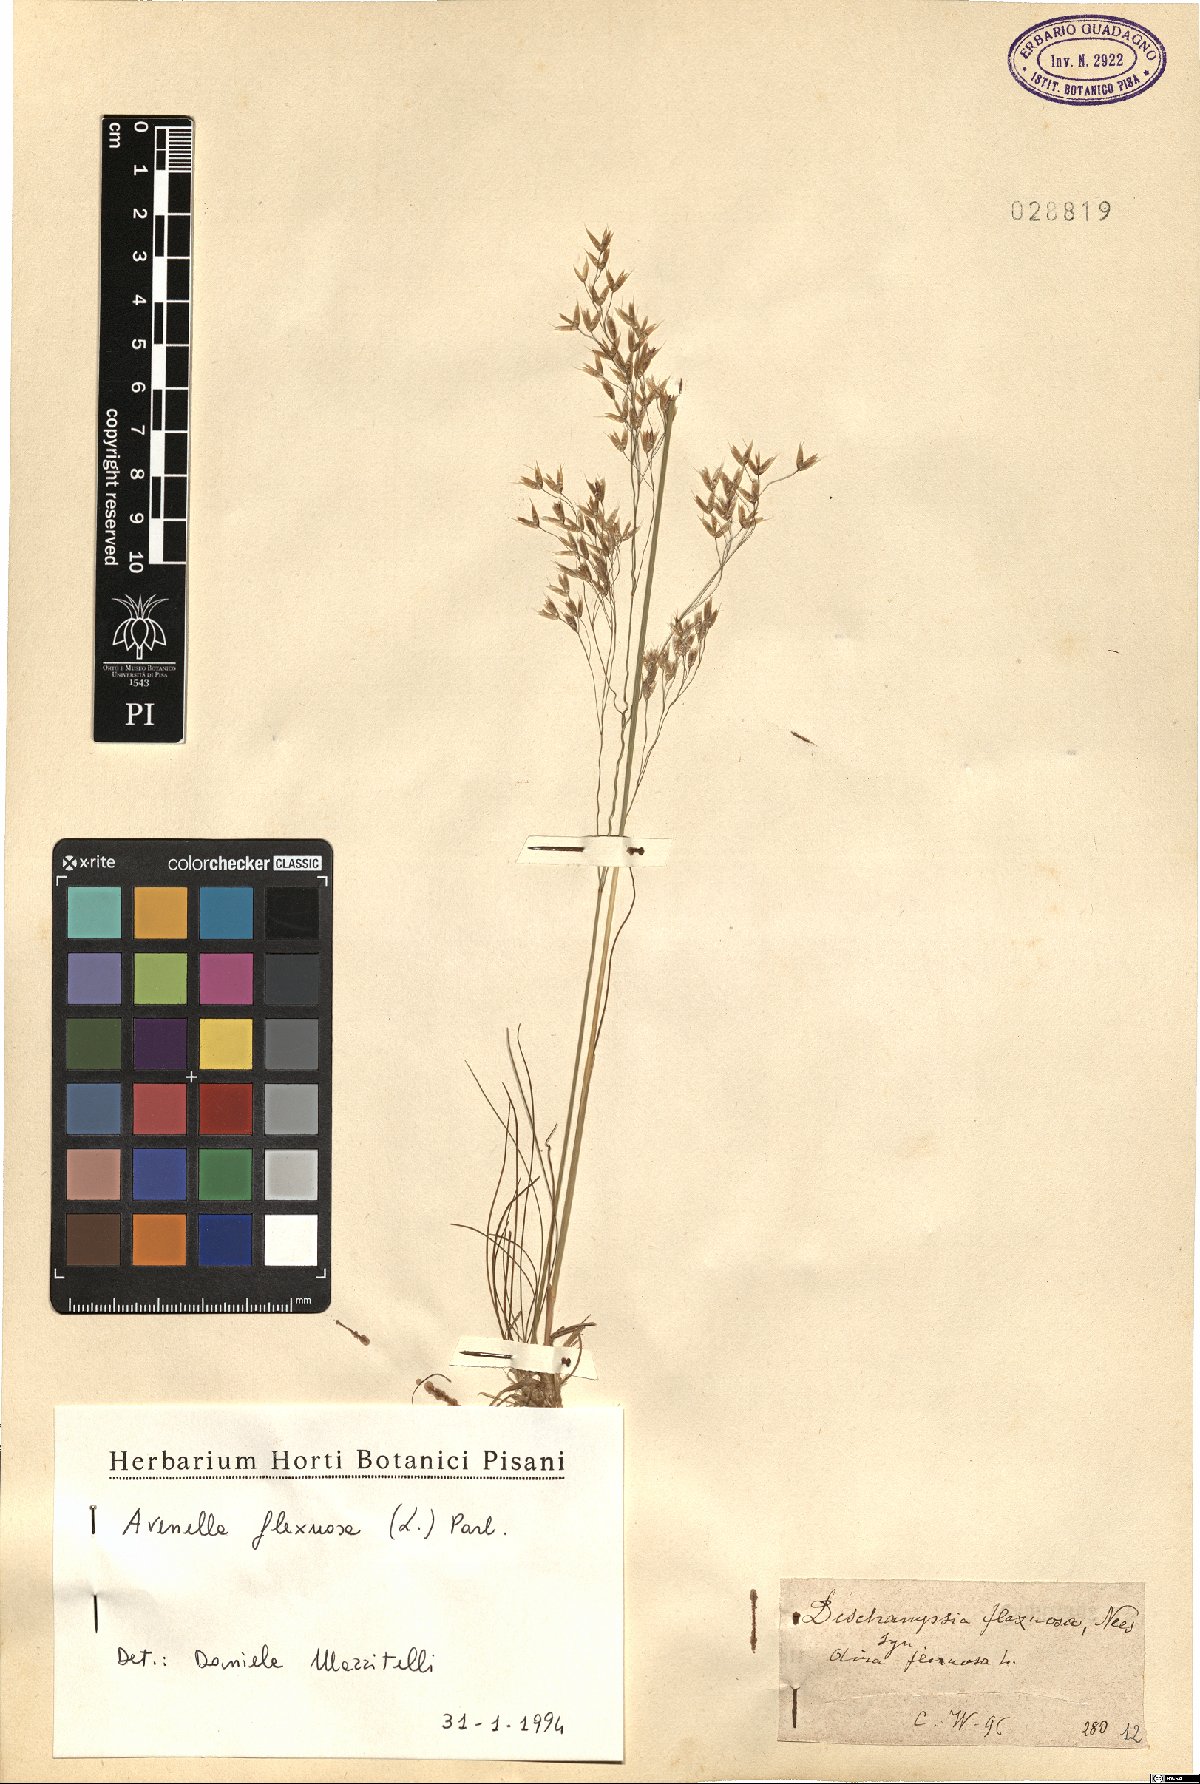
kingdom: Plantae
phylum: Tracheophyta
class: Liliopsida
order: Poales
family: Poaceae
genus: Avenella
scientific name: Avenella flexuosa
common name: Wavy hairgrass
